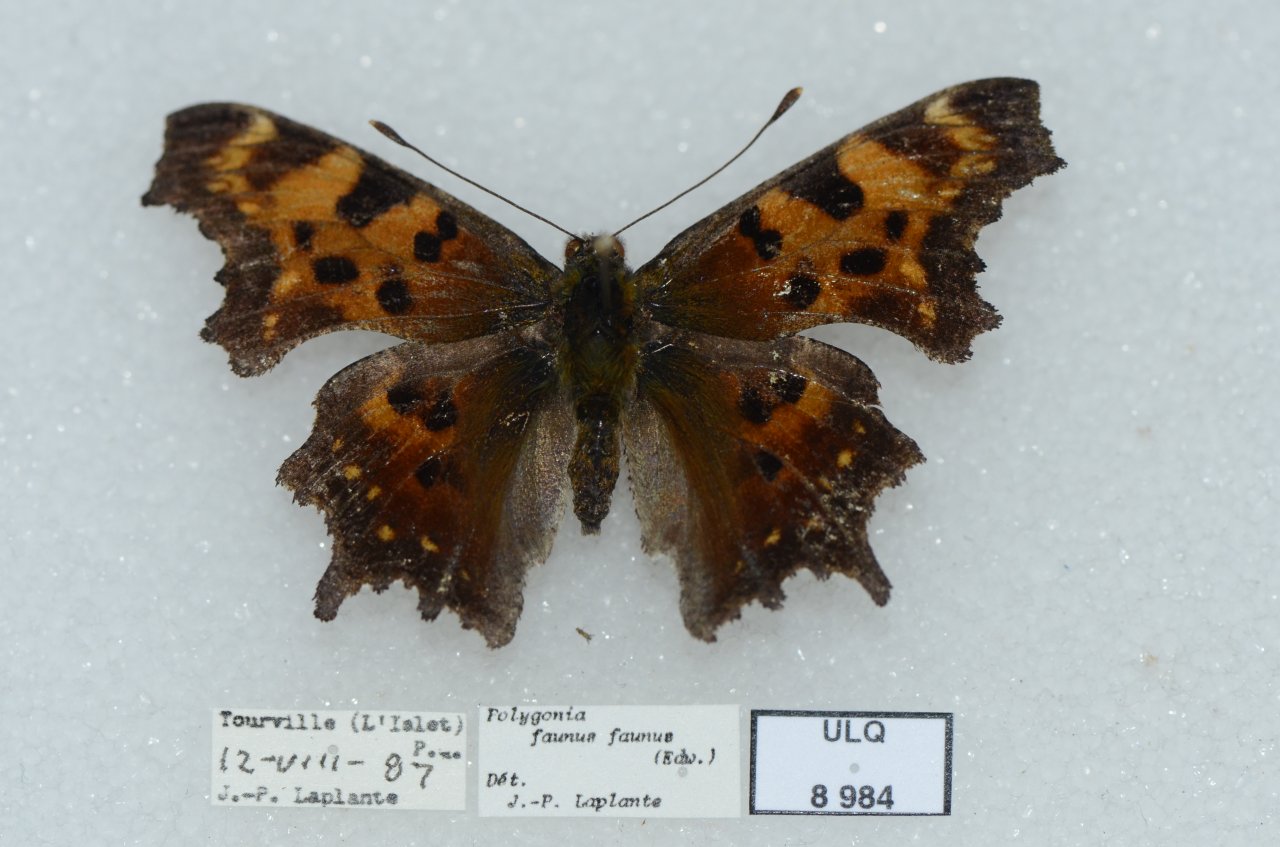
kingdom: Animalia
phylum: Arthropoda
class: Insecta
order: Lepidoptera
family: Nymphalidae
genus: Polygonia
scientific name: Polygonia faunus
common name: Green Comma
